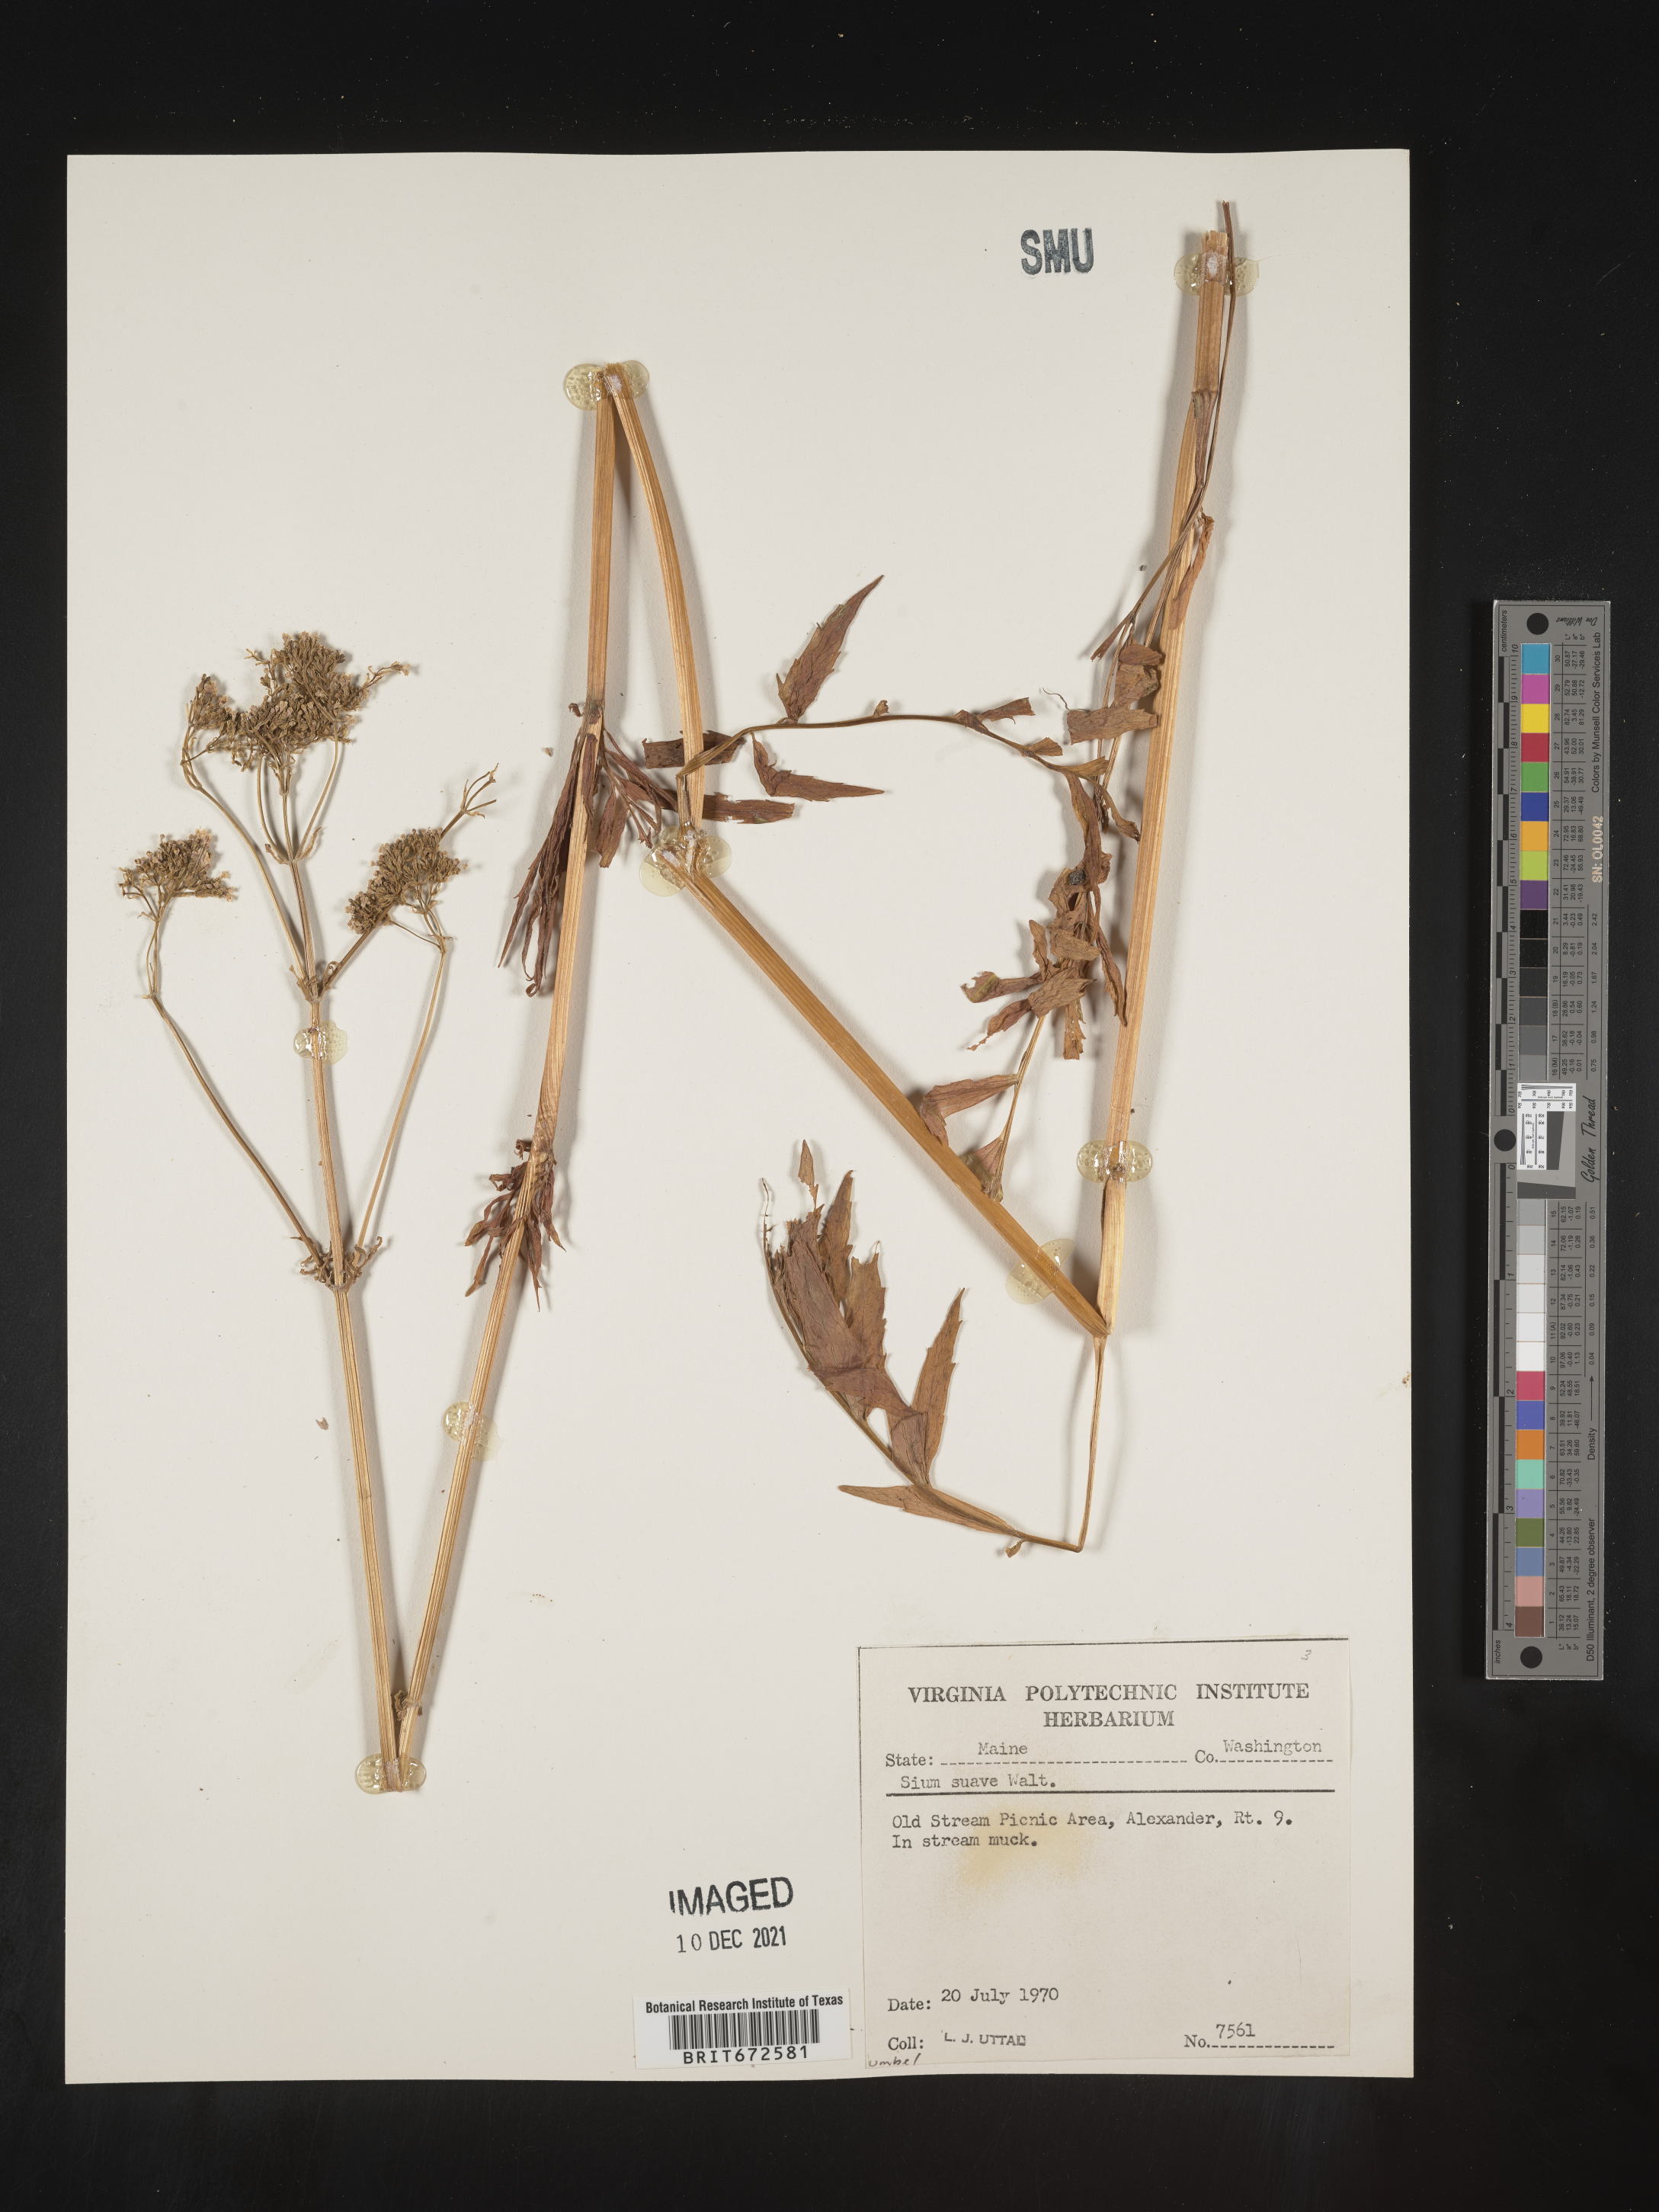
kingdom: Plantae
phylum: Tracheophyta
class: Magnoliopsida
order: Apiales
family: Apiaceae
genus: Sium
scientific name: Sium suave
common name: Hemlock water-parsnip
